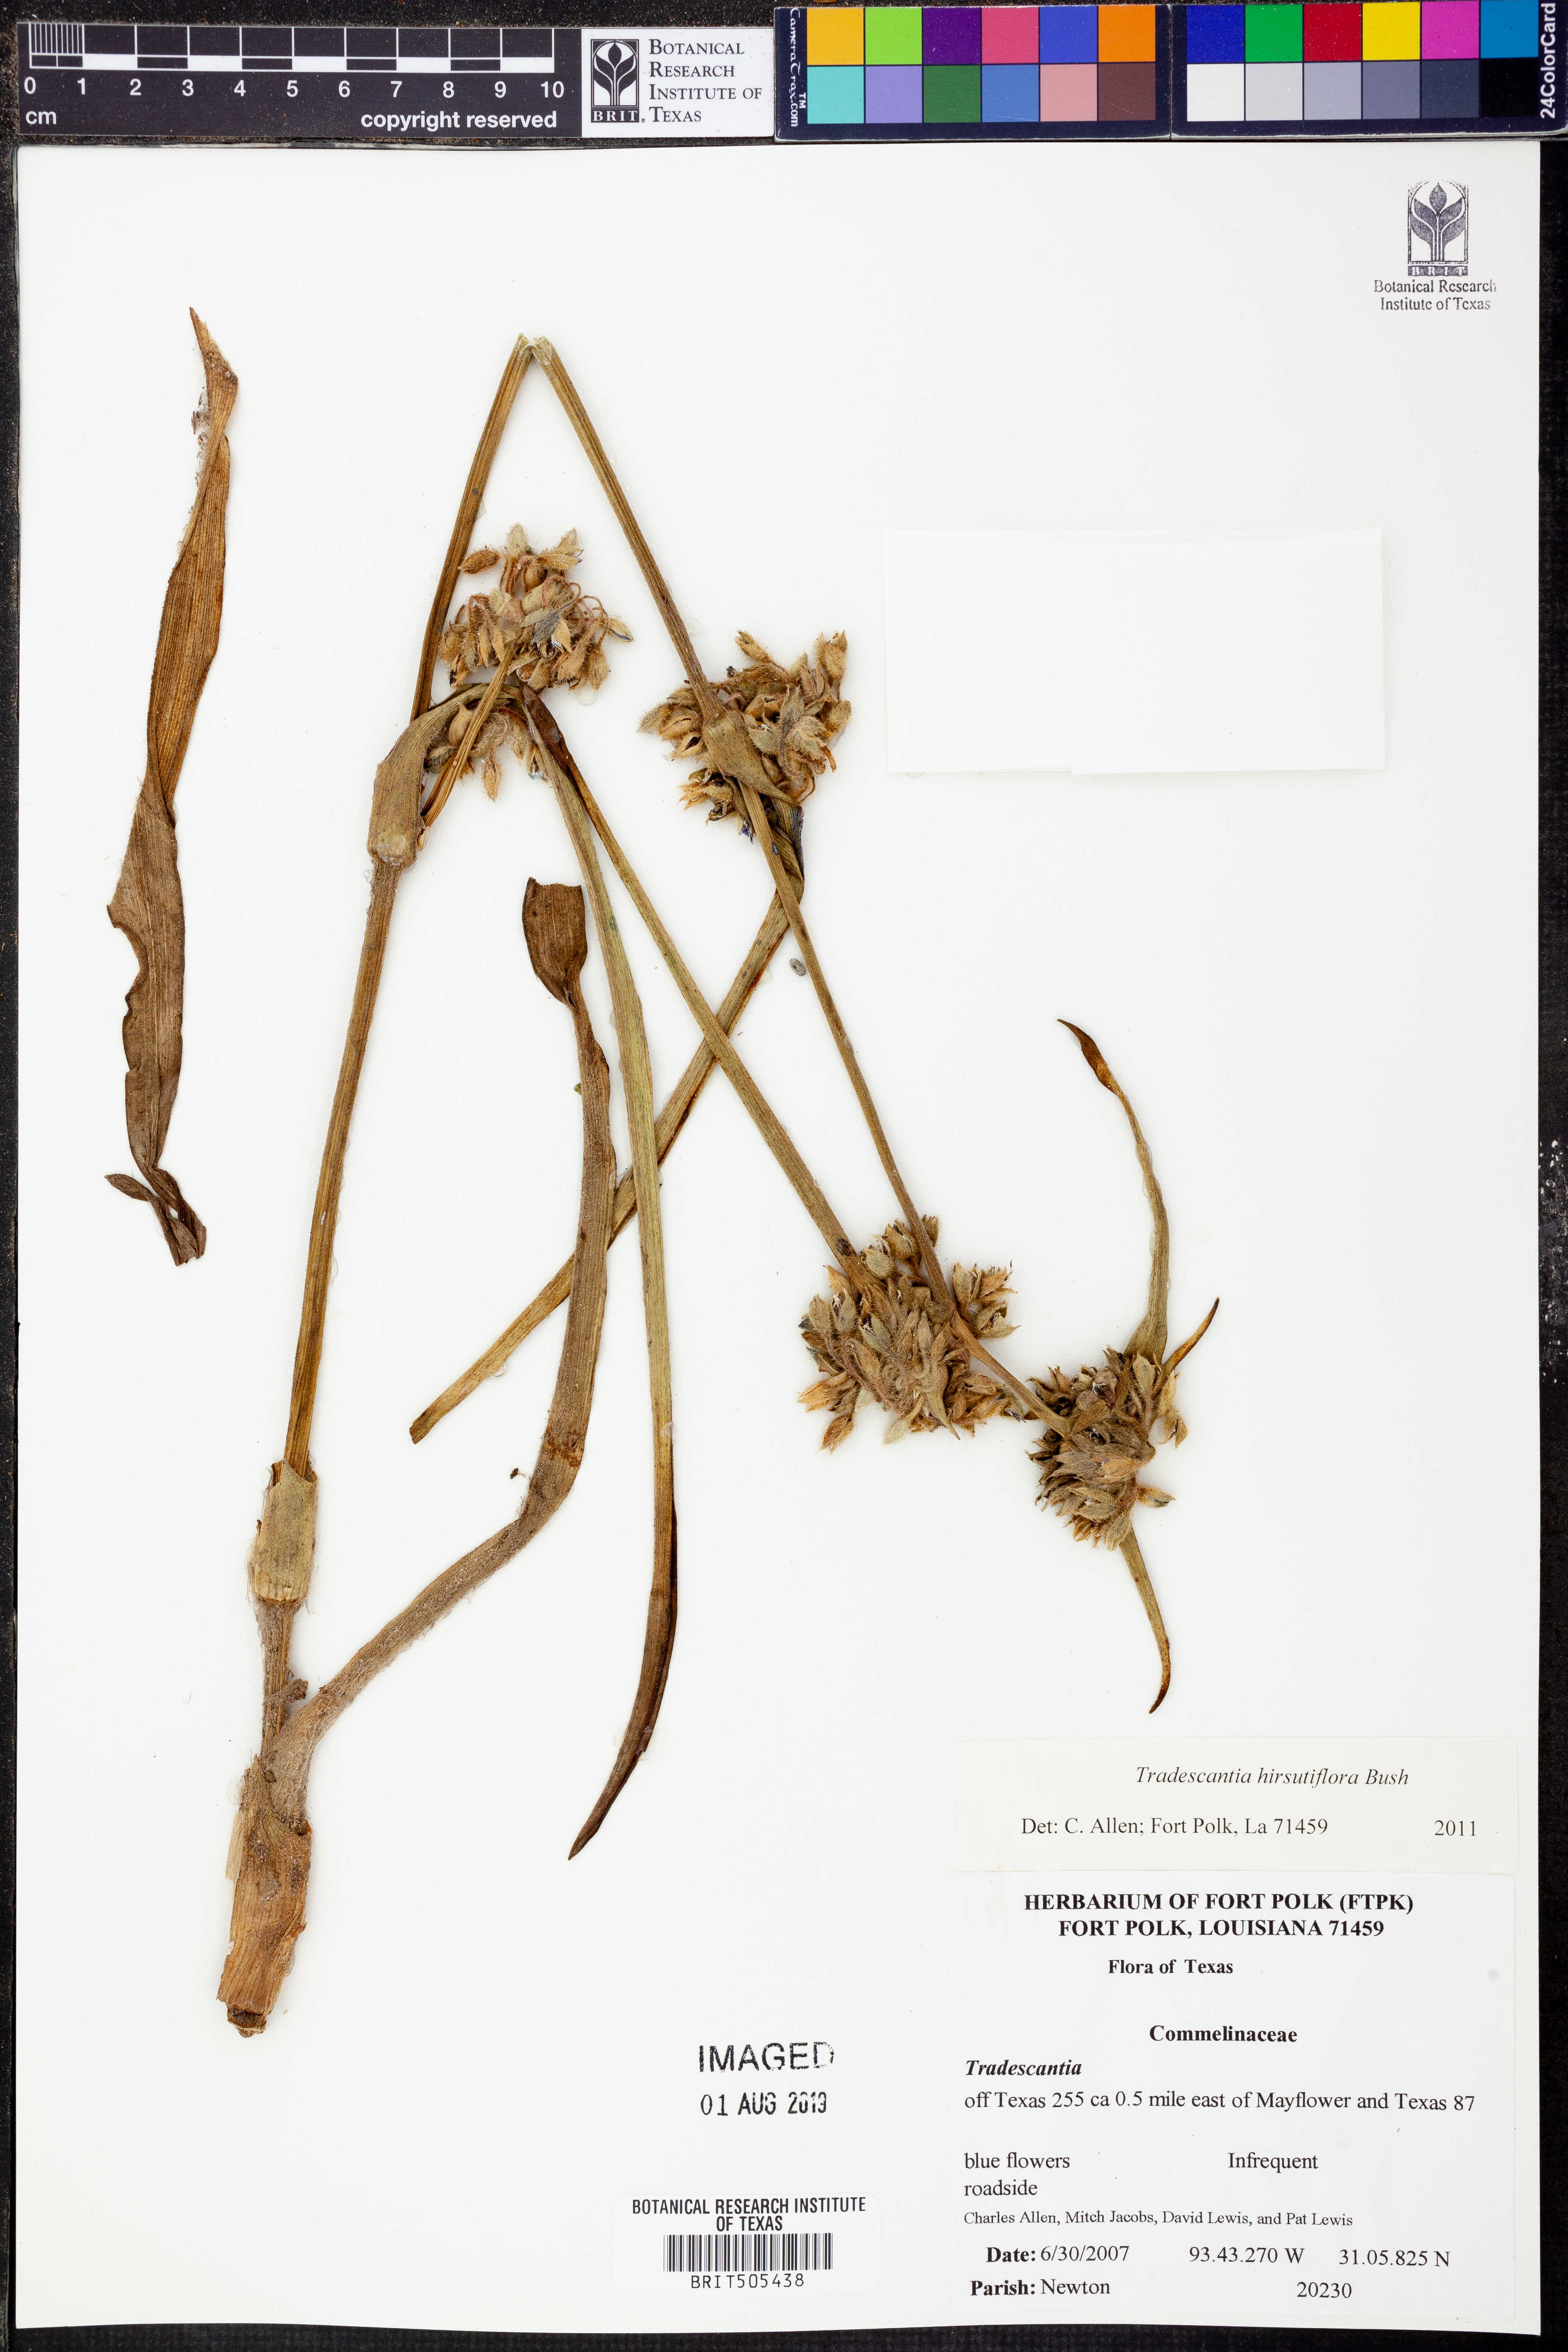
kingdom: Plantae
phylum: Tracheophyta
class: Liliopsida
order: Commelinales
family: Commelinaceae
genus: Tradescantia
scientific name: Tradescantia hirsutiflora
